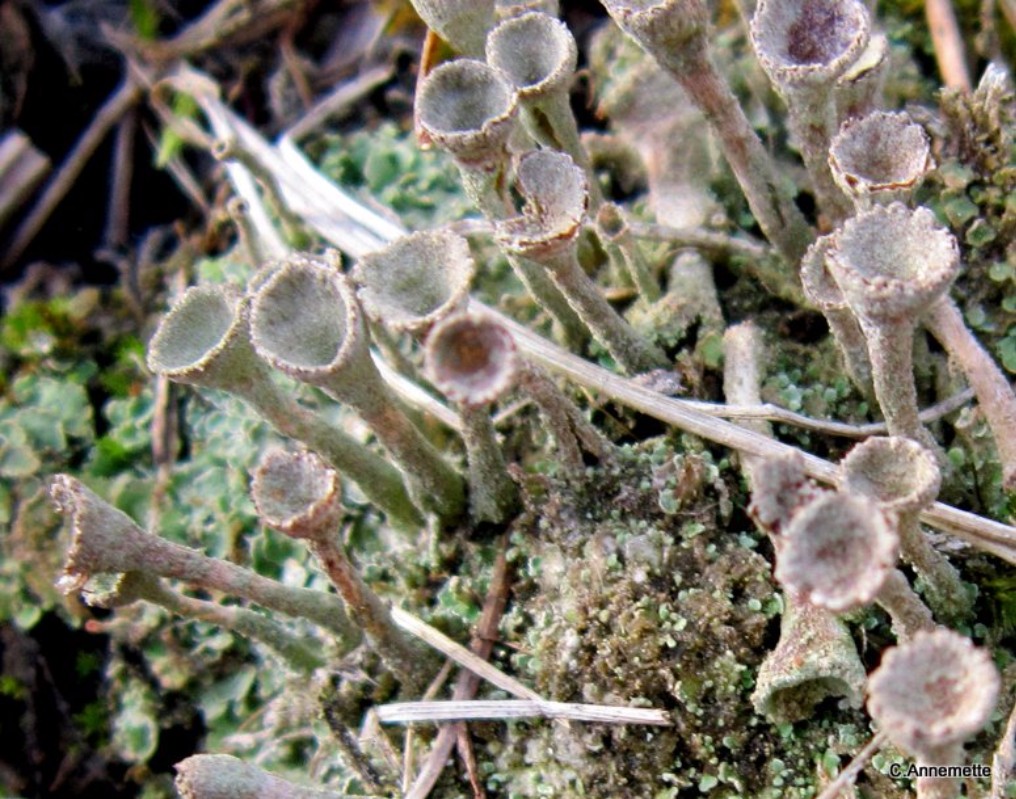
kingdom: Fungi
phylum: Ascomycota
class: Lecanoromycetes
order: Lecanorales
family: Cladoniaceae
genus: Cladonia
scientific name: Cladonia
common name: brungrøn bægerlav
